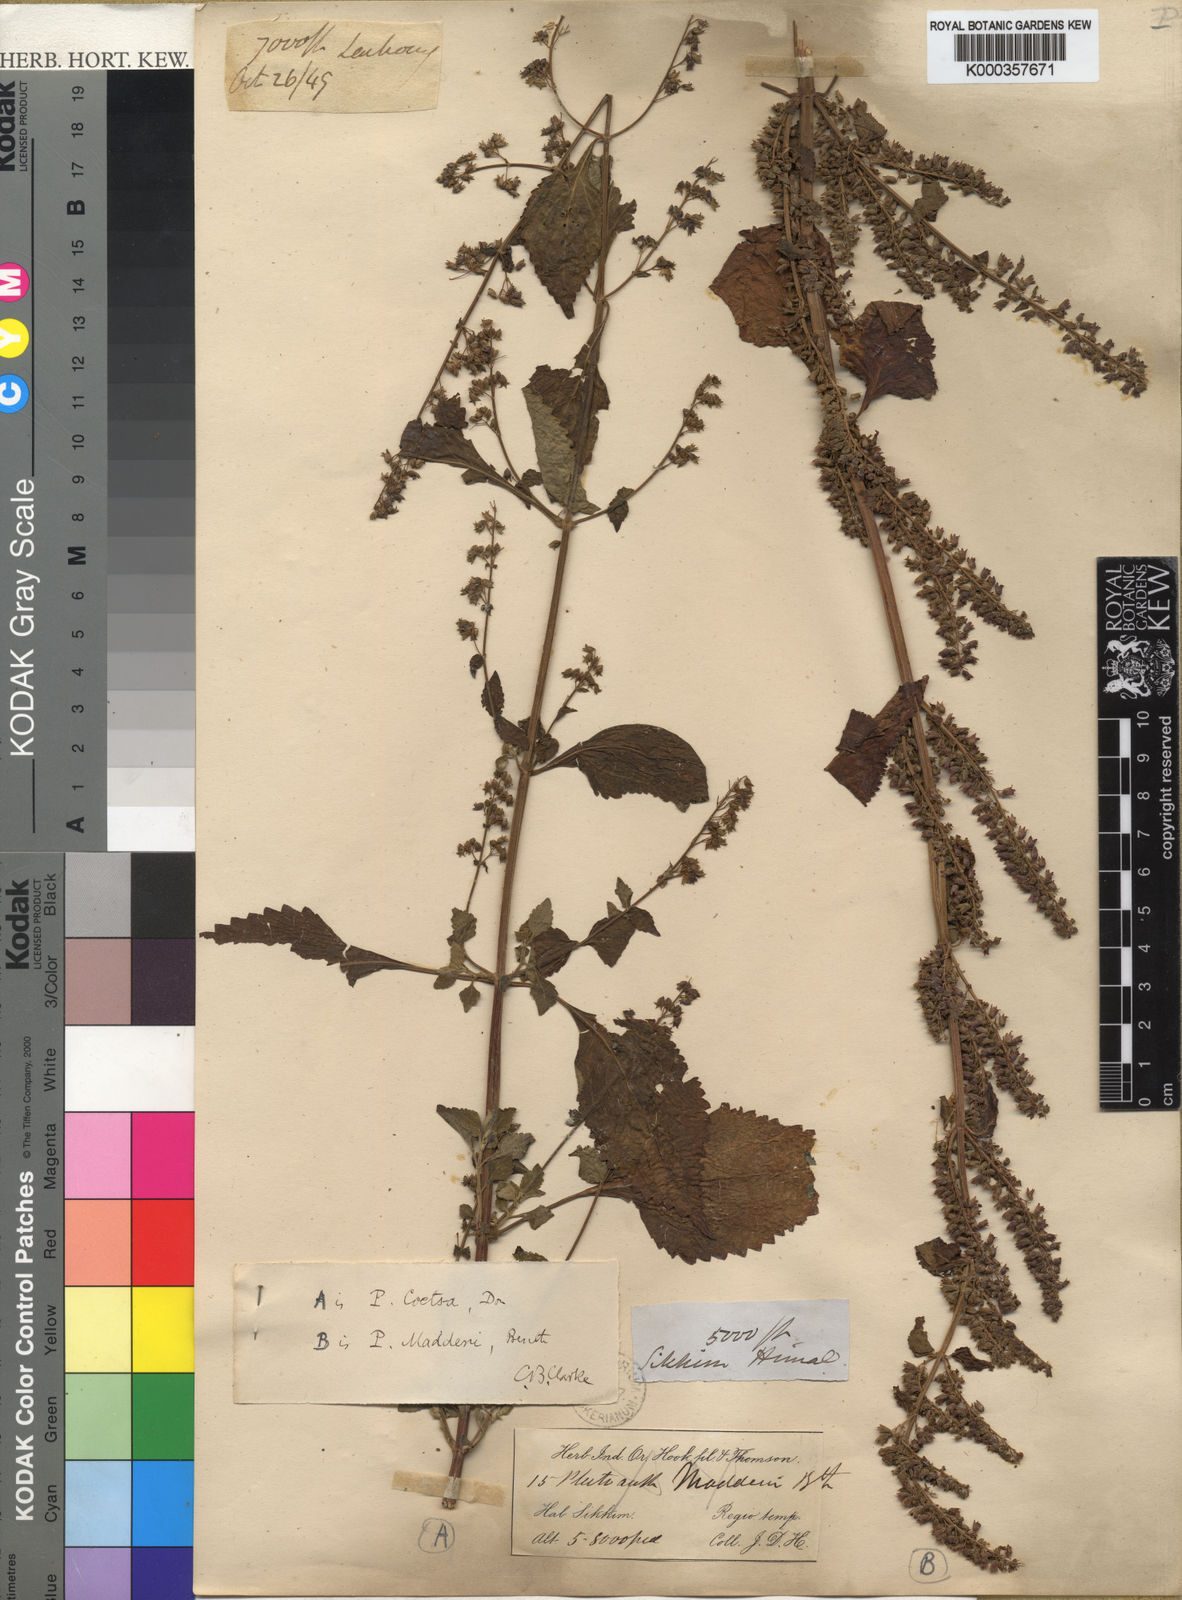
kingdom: Plantae
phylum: Tracheophyta
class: Magnoliopsida
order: Lamiales
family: Lamiaceae
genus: Isodon
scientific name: Isodon
